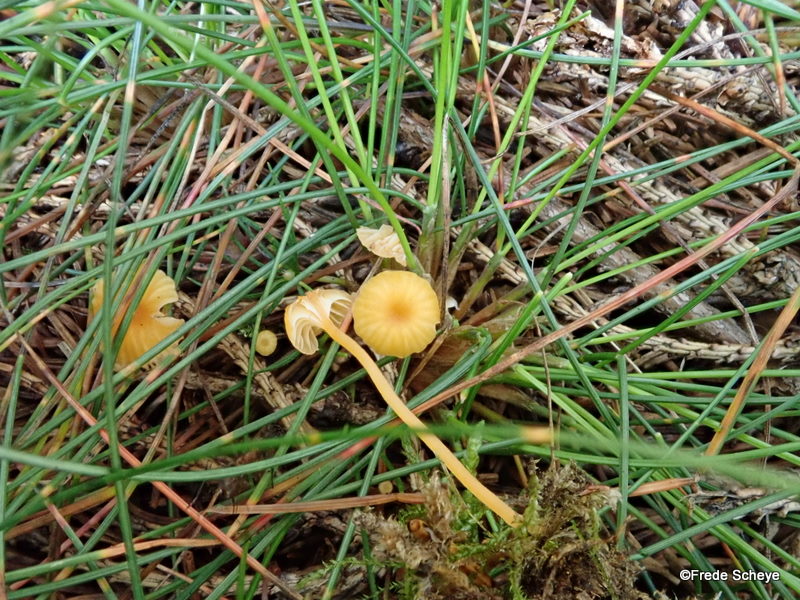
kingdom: Fungi
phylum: Basidiomycota
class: Agaricomycetes
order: Hymenochaetales
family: Rickenellaceae
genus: Rickenella
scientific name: Rickenella fibula
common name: orange mosnavlehat
